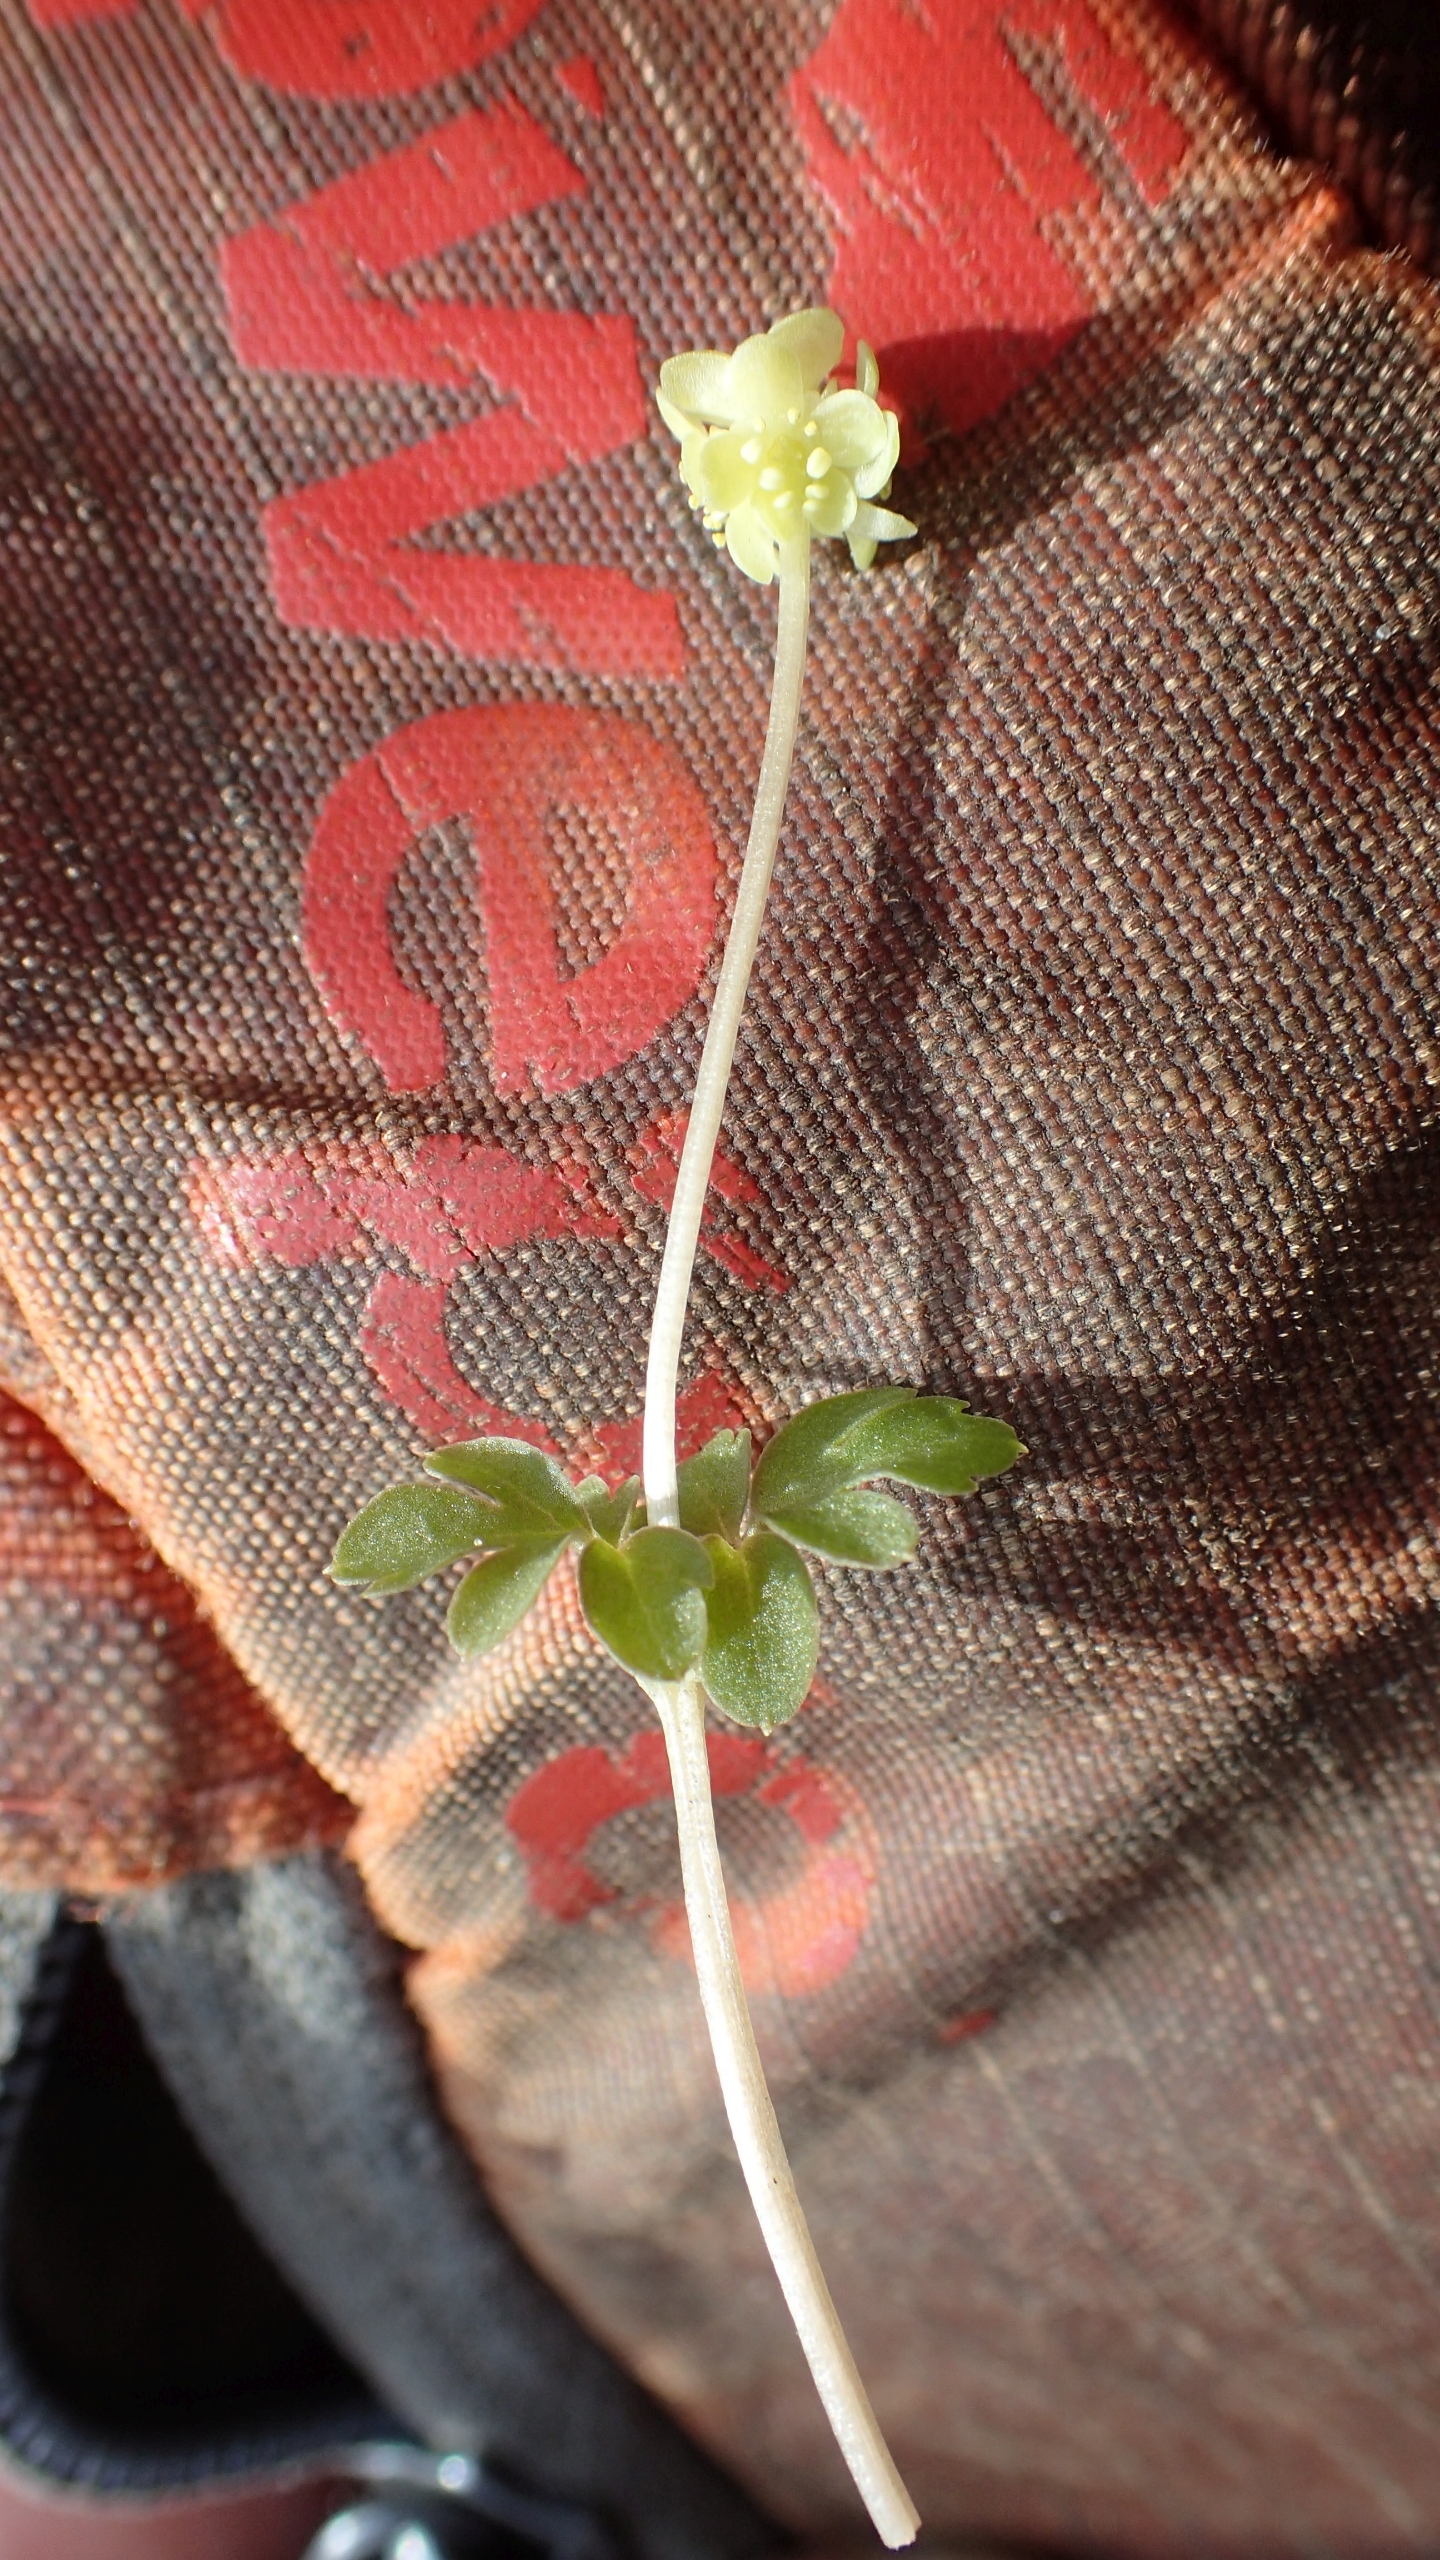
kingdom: Plantae
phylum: Tracheophyta
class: Magnoliopsida
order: Dipsacales
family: Viburnaceae
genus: Adoxa
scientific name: Adoxa moschatellina
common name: Desmerurt
